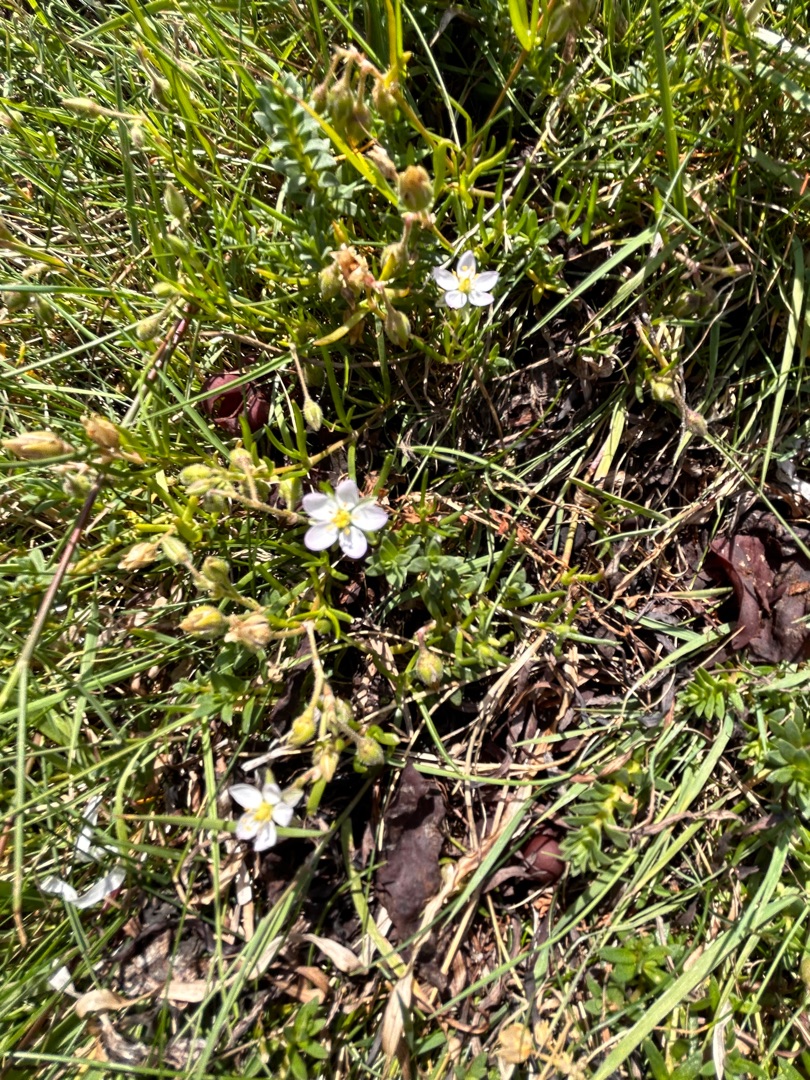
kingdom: Plantae
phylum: Tracheophyta
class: Magnoliopsida
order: Caryophyllales
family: Caryophyllaceae
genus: Spergularia
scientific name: Spergularia media
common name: Vingefrøet hindeknæ
